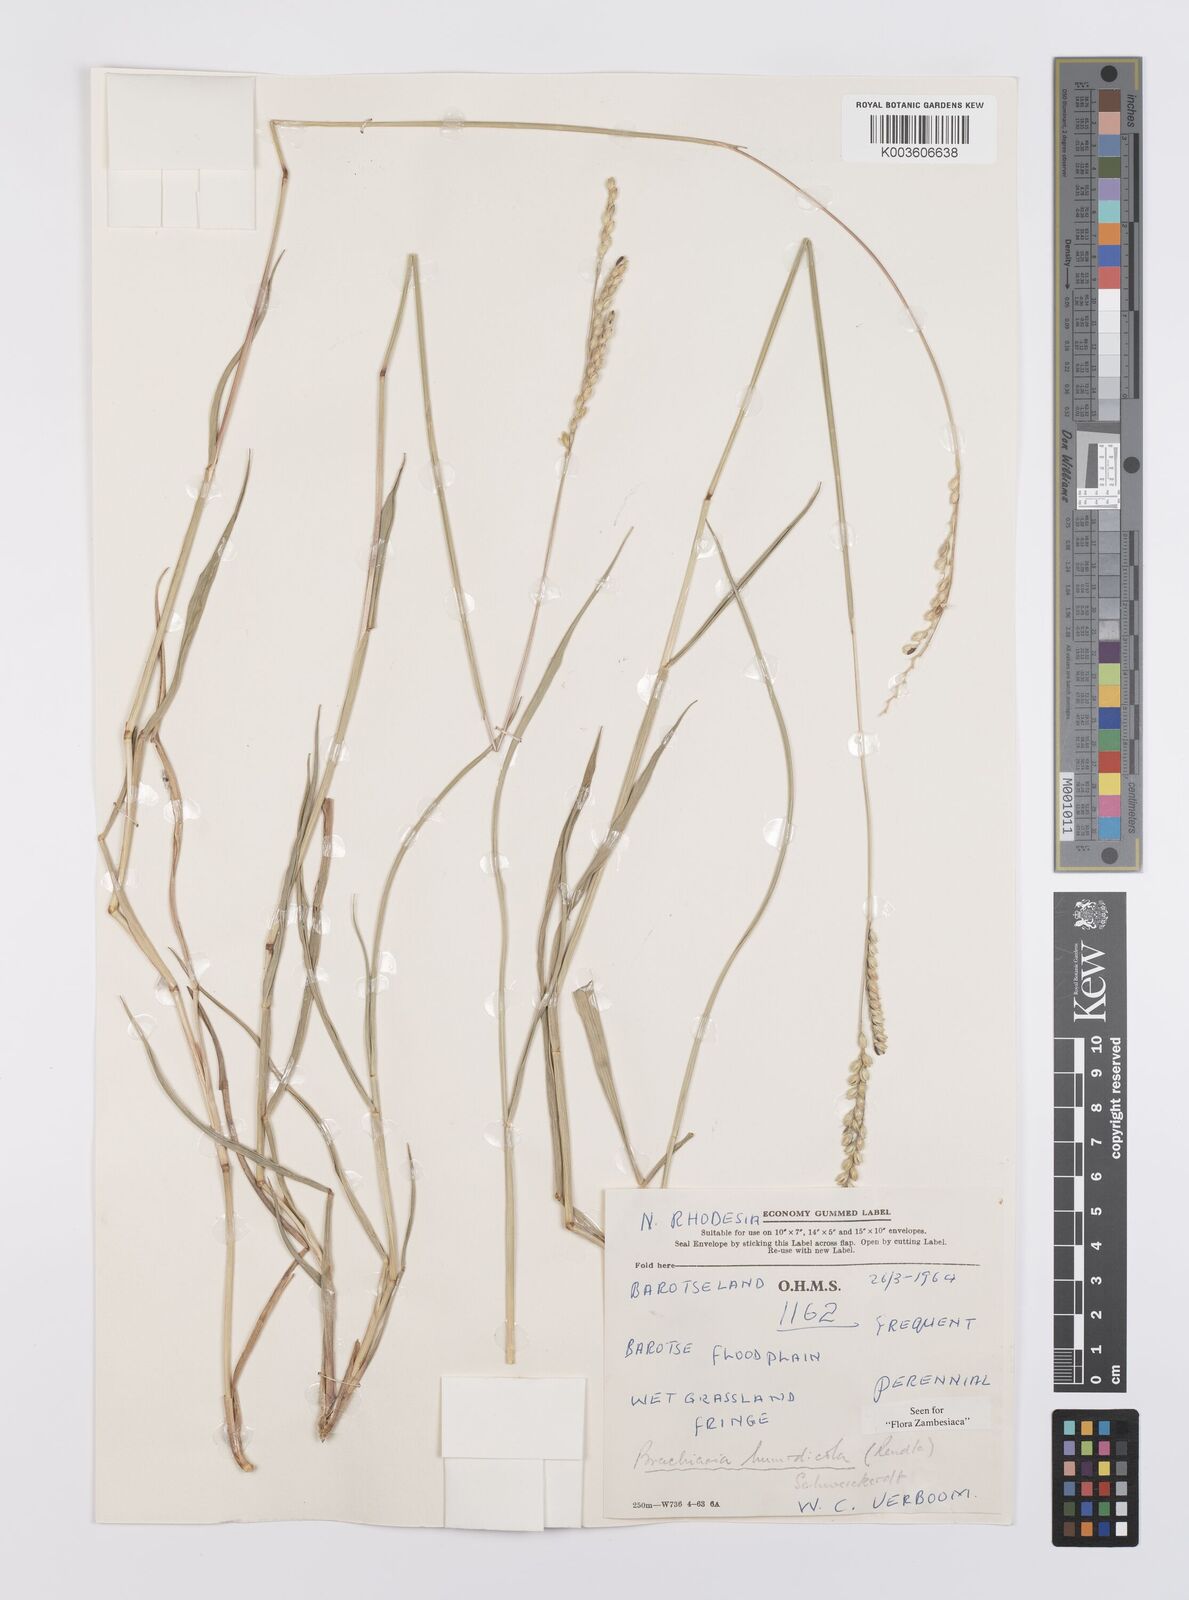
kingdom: Plantae
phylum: Tracheophyta
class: Liliopsida
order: Poales
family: Poaceae
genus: Urochloa
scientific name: Urochloa dictyoneura
